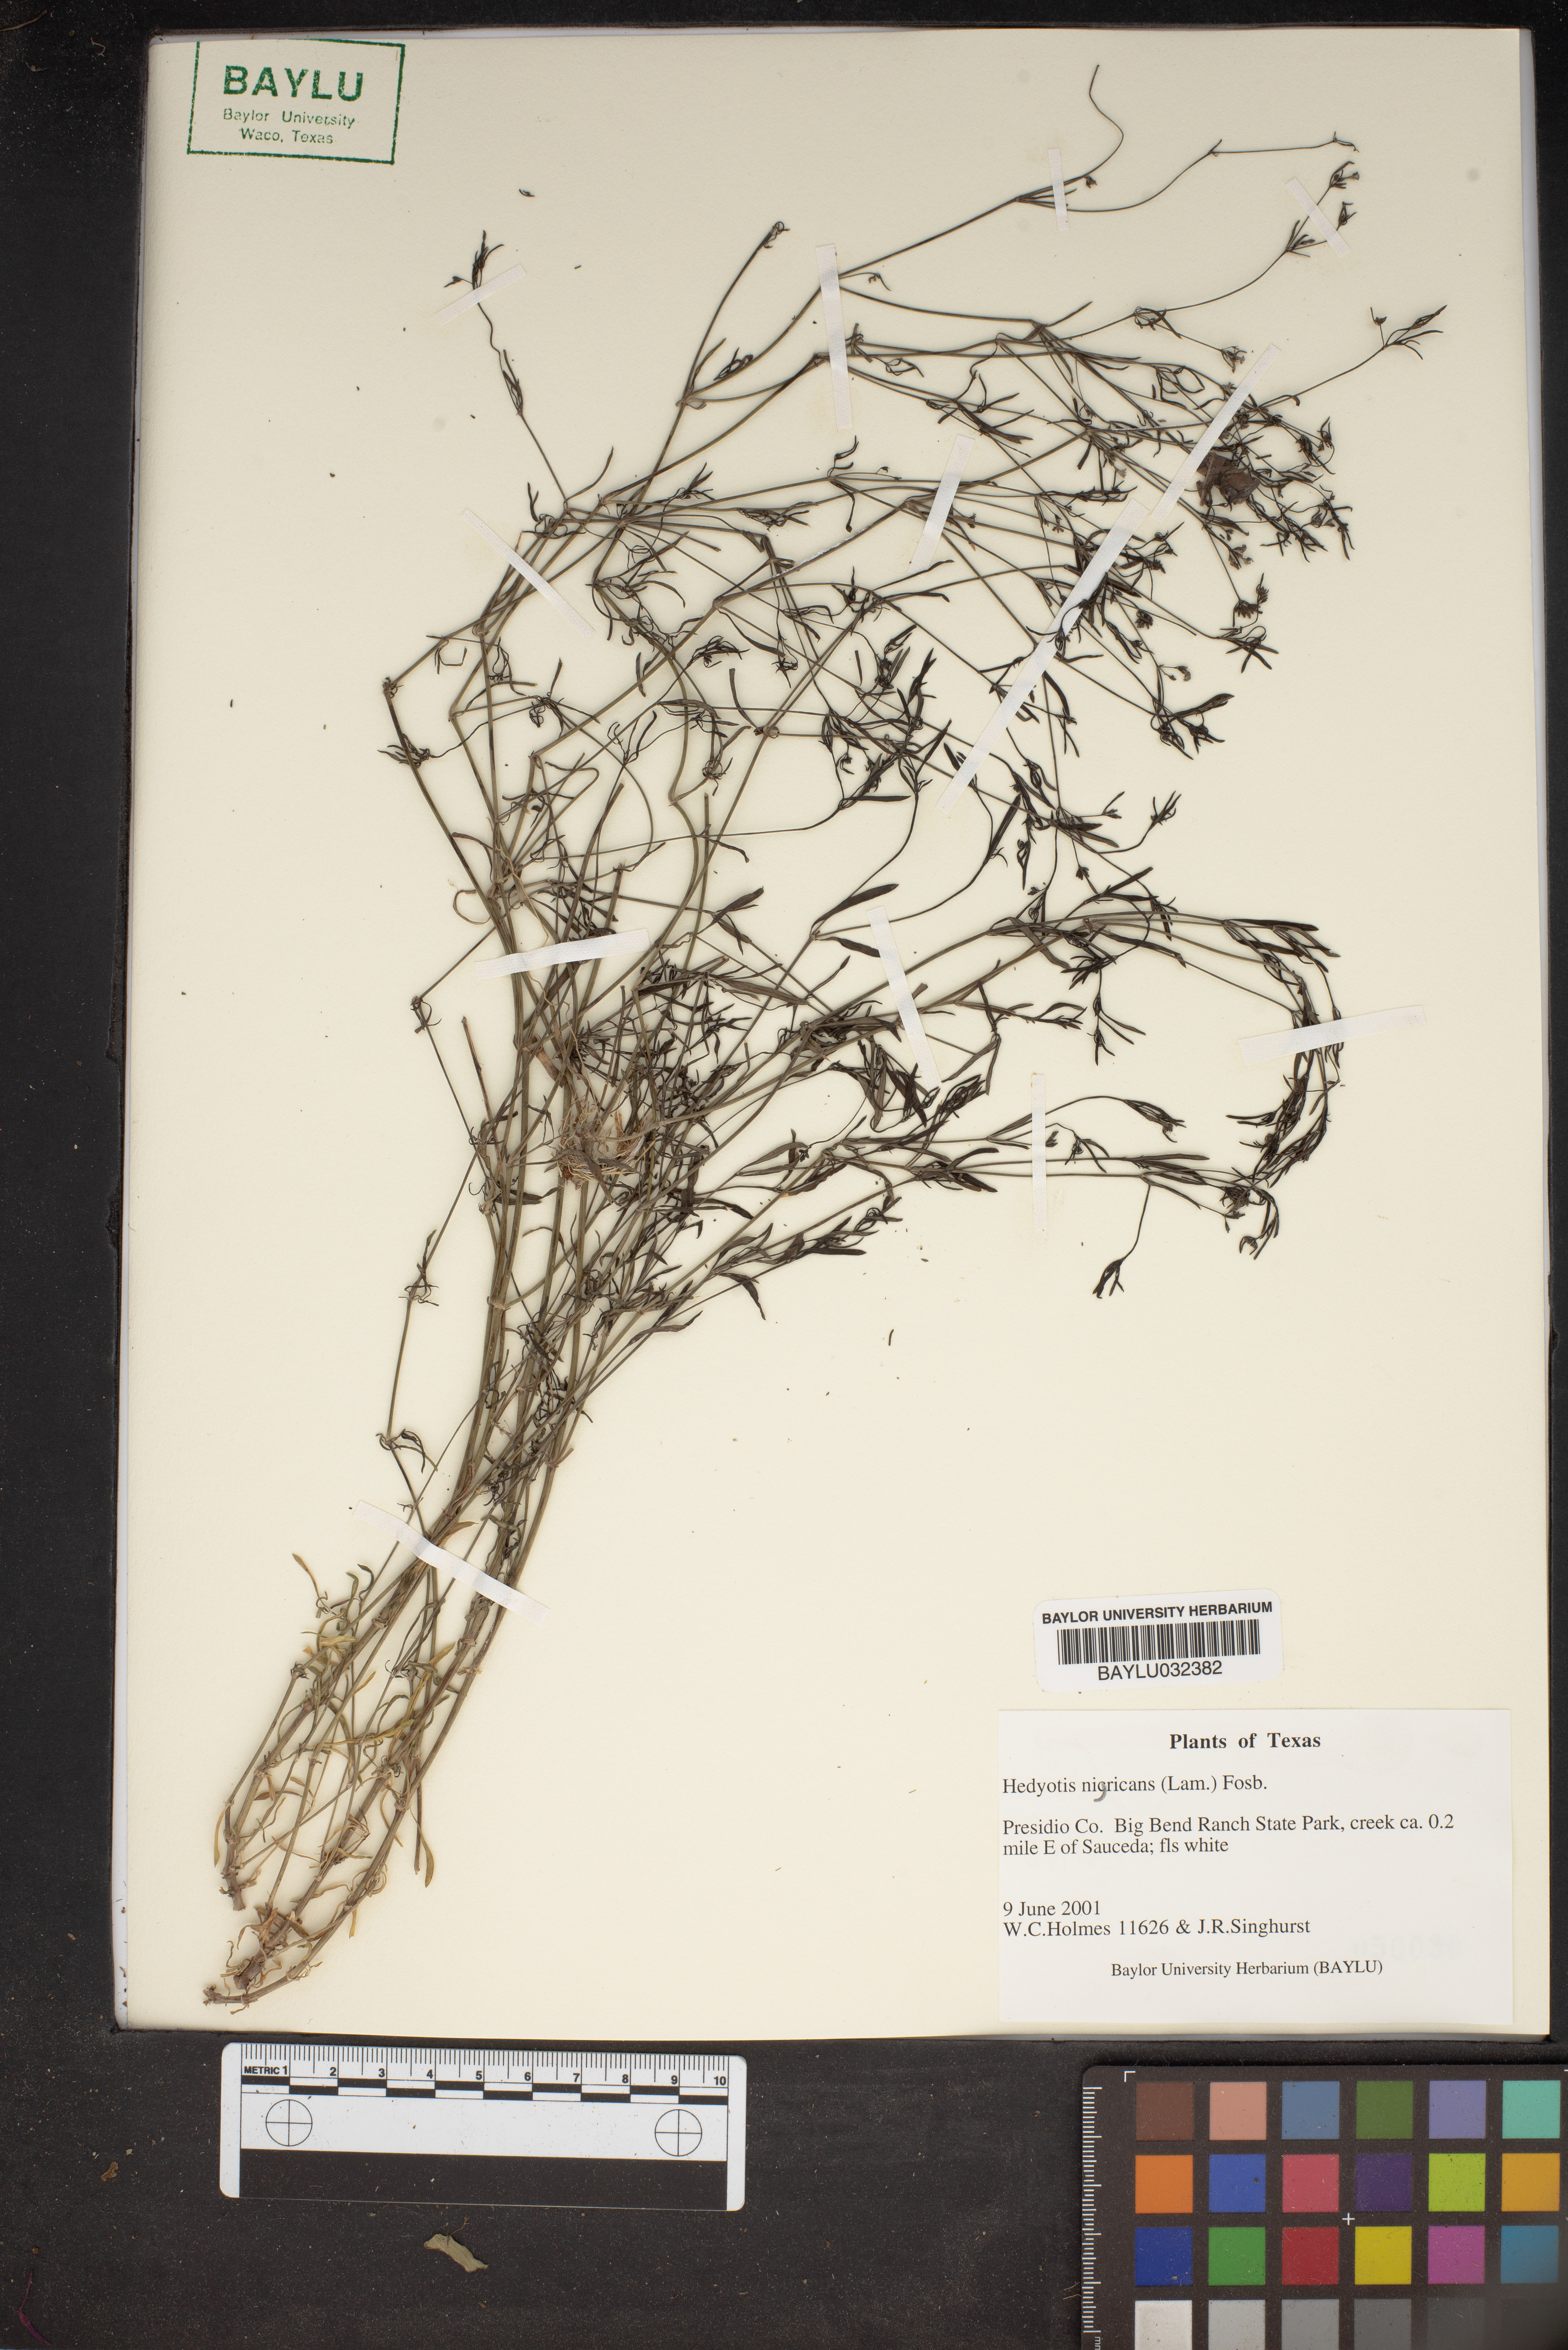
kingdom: Plantae
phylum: Tracheophyta
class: Magnoliopsida
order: Gentianales
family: Rubiaceae
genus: Stenaria
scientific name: Stenaria nigricans
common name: Diamondflowers
